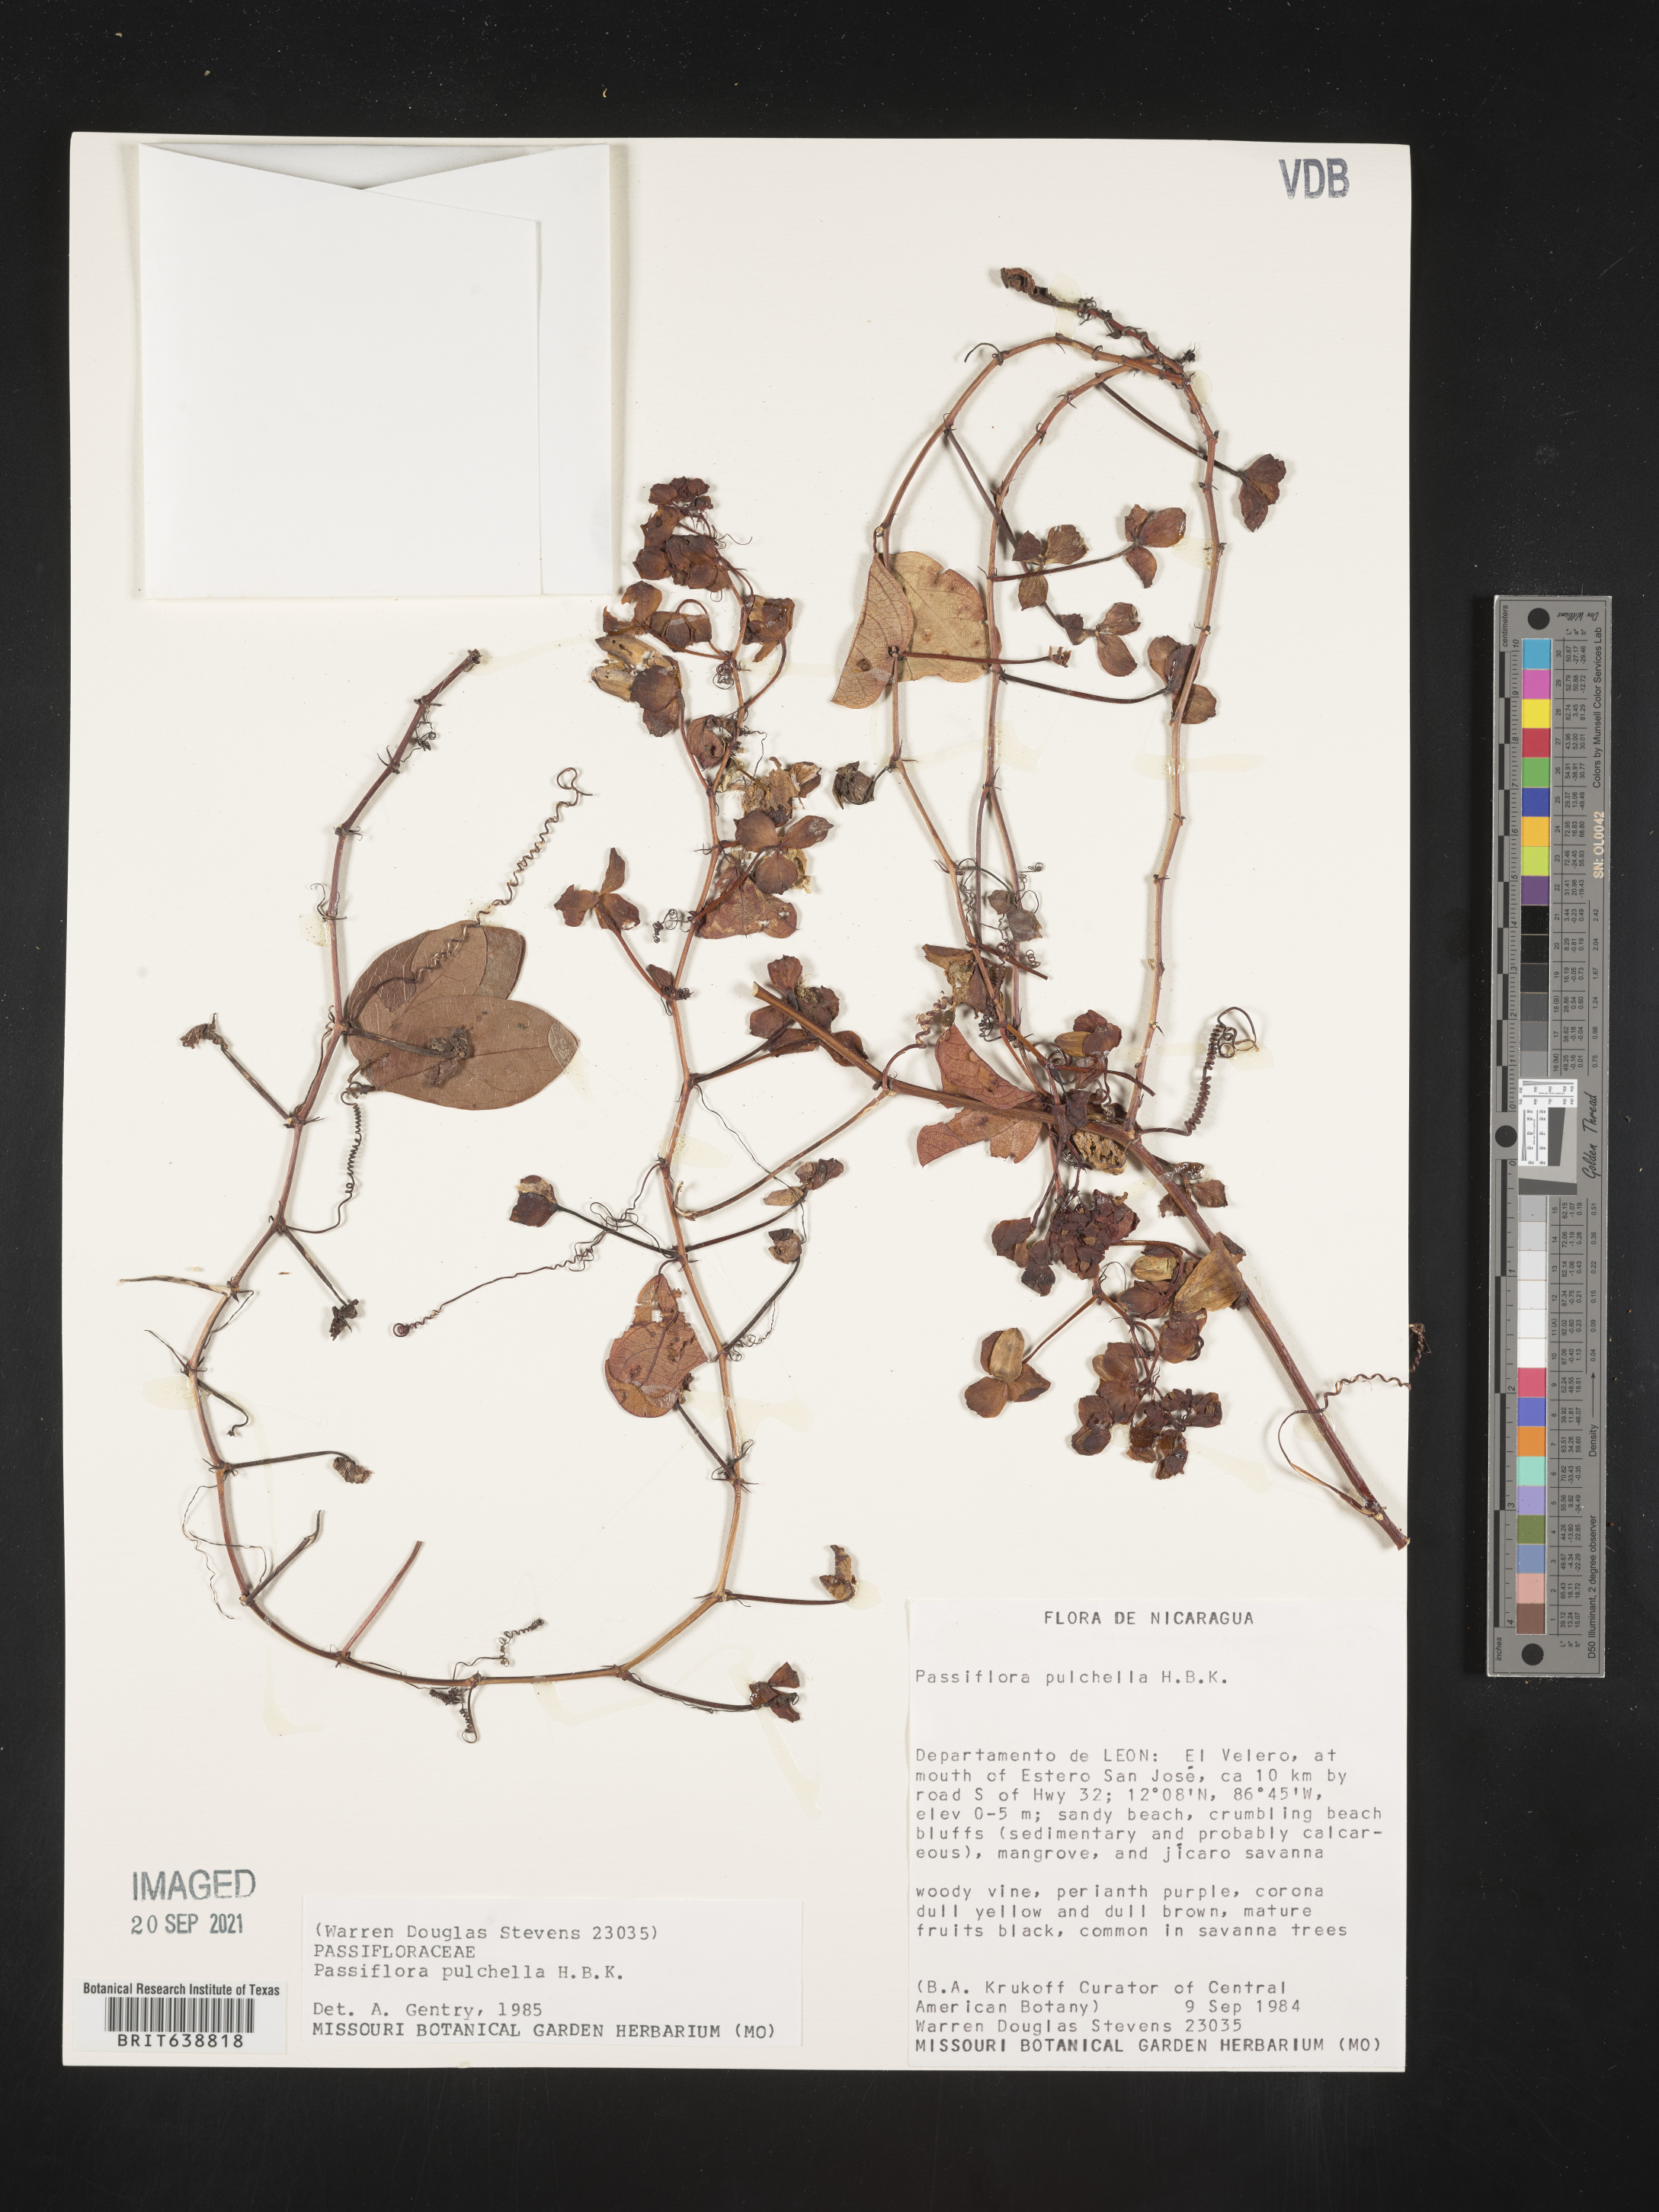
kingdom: Plantae
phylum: Tracheophyta
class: Magnoliopsida
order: Malpighiales
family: Passifloraceae
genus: Passiflora
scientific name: Passiflora
